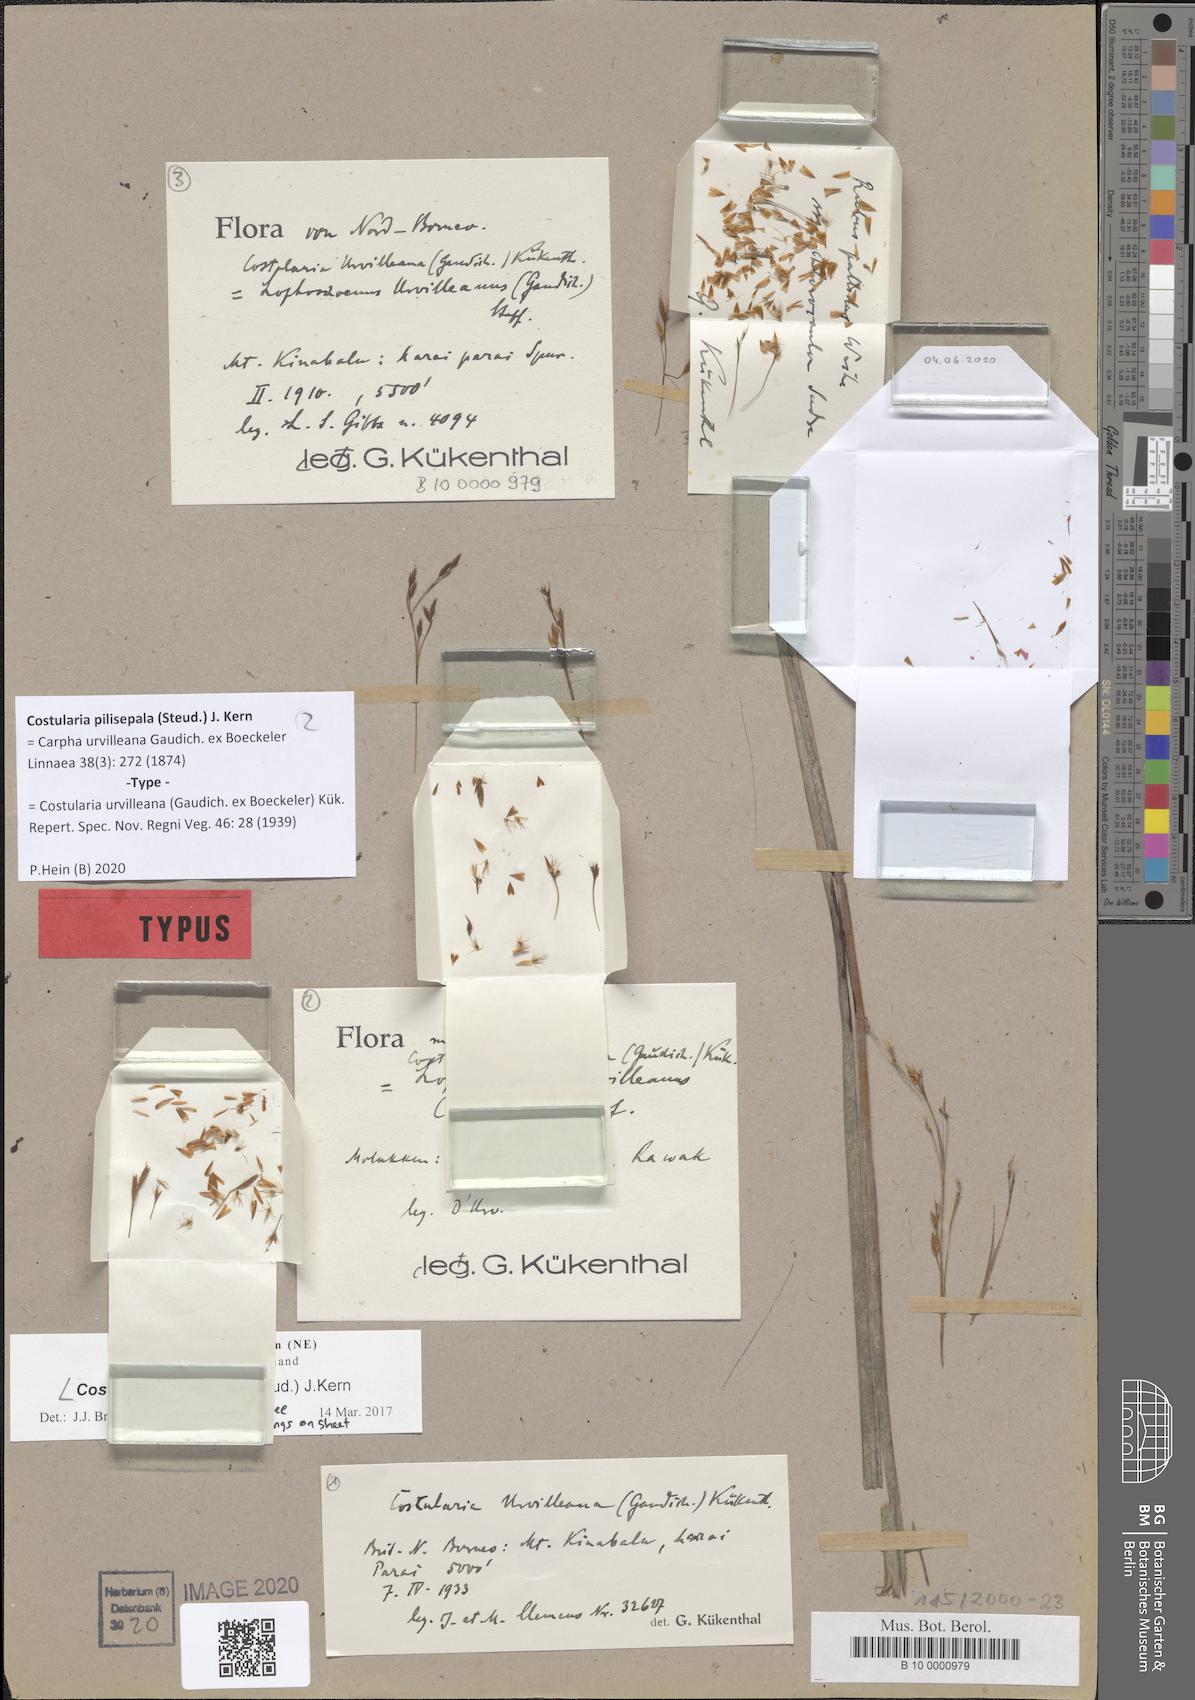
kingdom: Plantae
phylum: Tracheophyta
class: Liliopsida
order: Poales
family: Cyperaceae
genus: Tetraria
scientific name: Tetraria pilisepala
